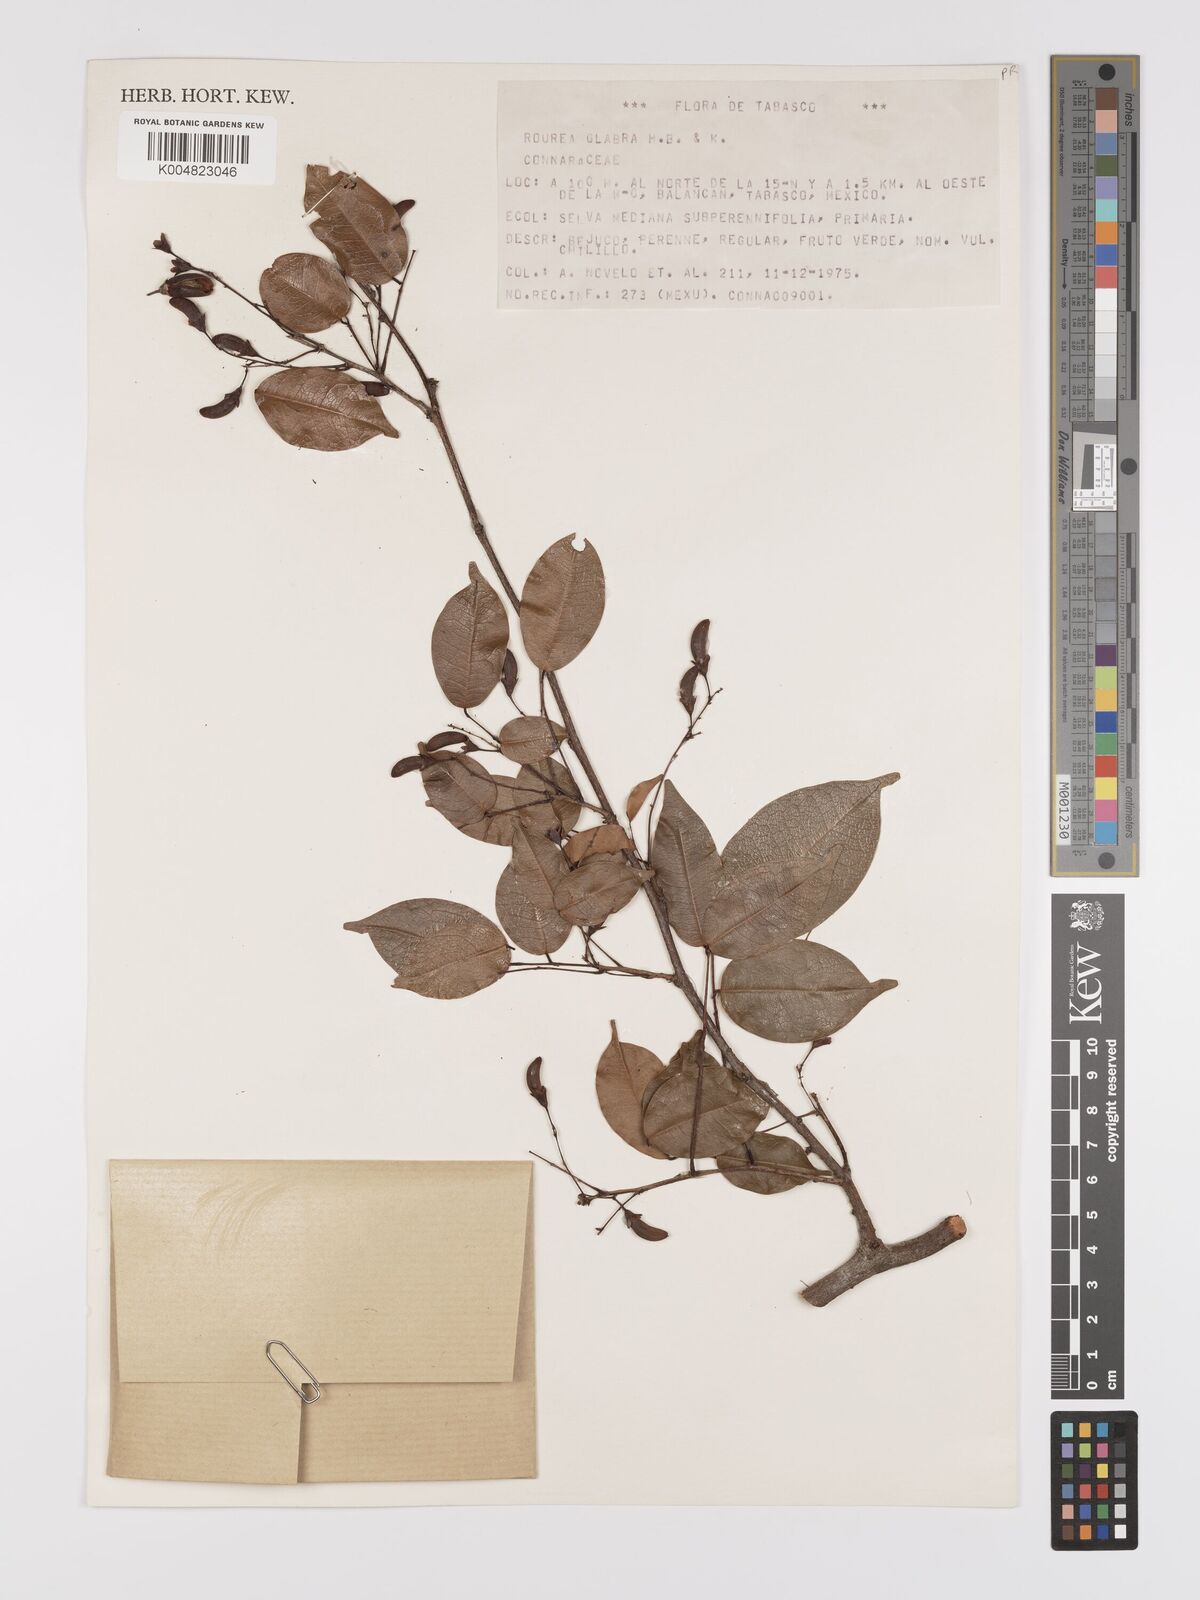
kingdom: Plantae
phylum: Tracheophyta
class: Magnoliopsida
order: Oxalidales
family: Connaraceae
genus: Rourea
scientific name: Rourea glabra
